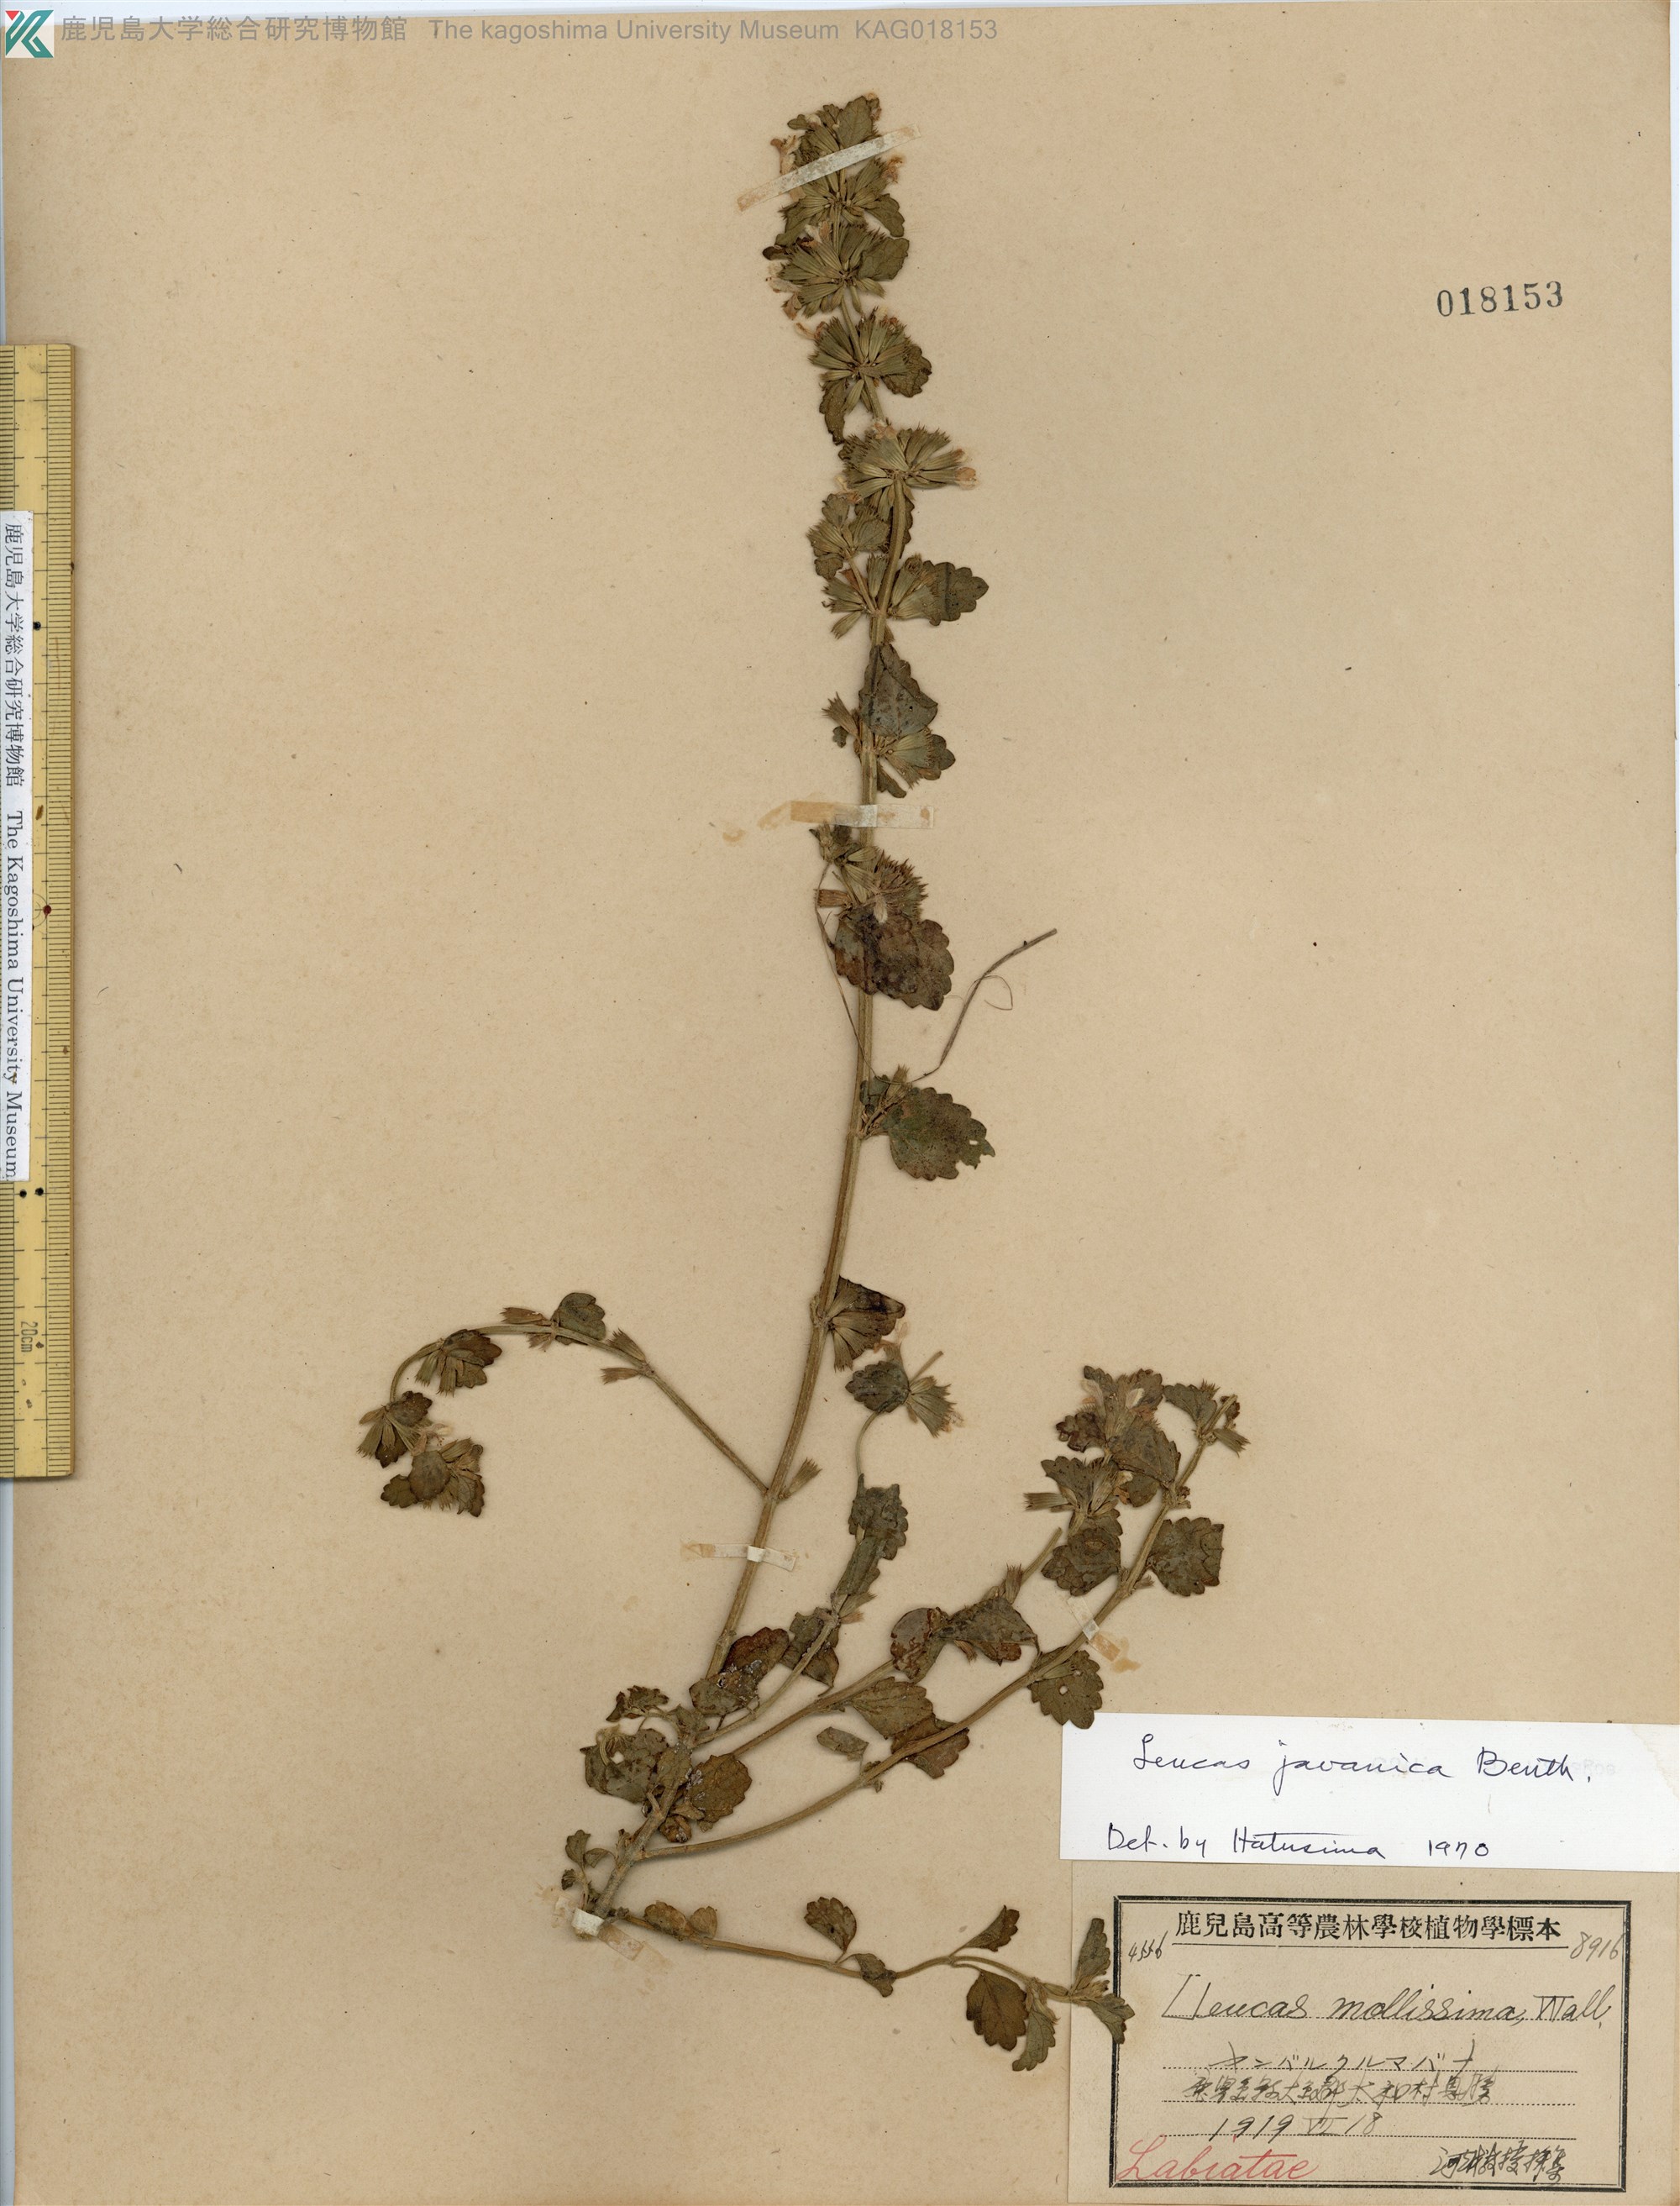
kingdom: Plantae
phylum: Tracheophyta
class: Magnoliopsida
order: Lamiales
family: Lamiaceae
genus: Leucas
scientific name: Leucas chinensis
